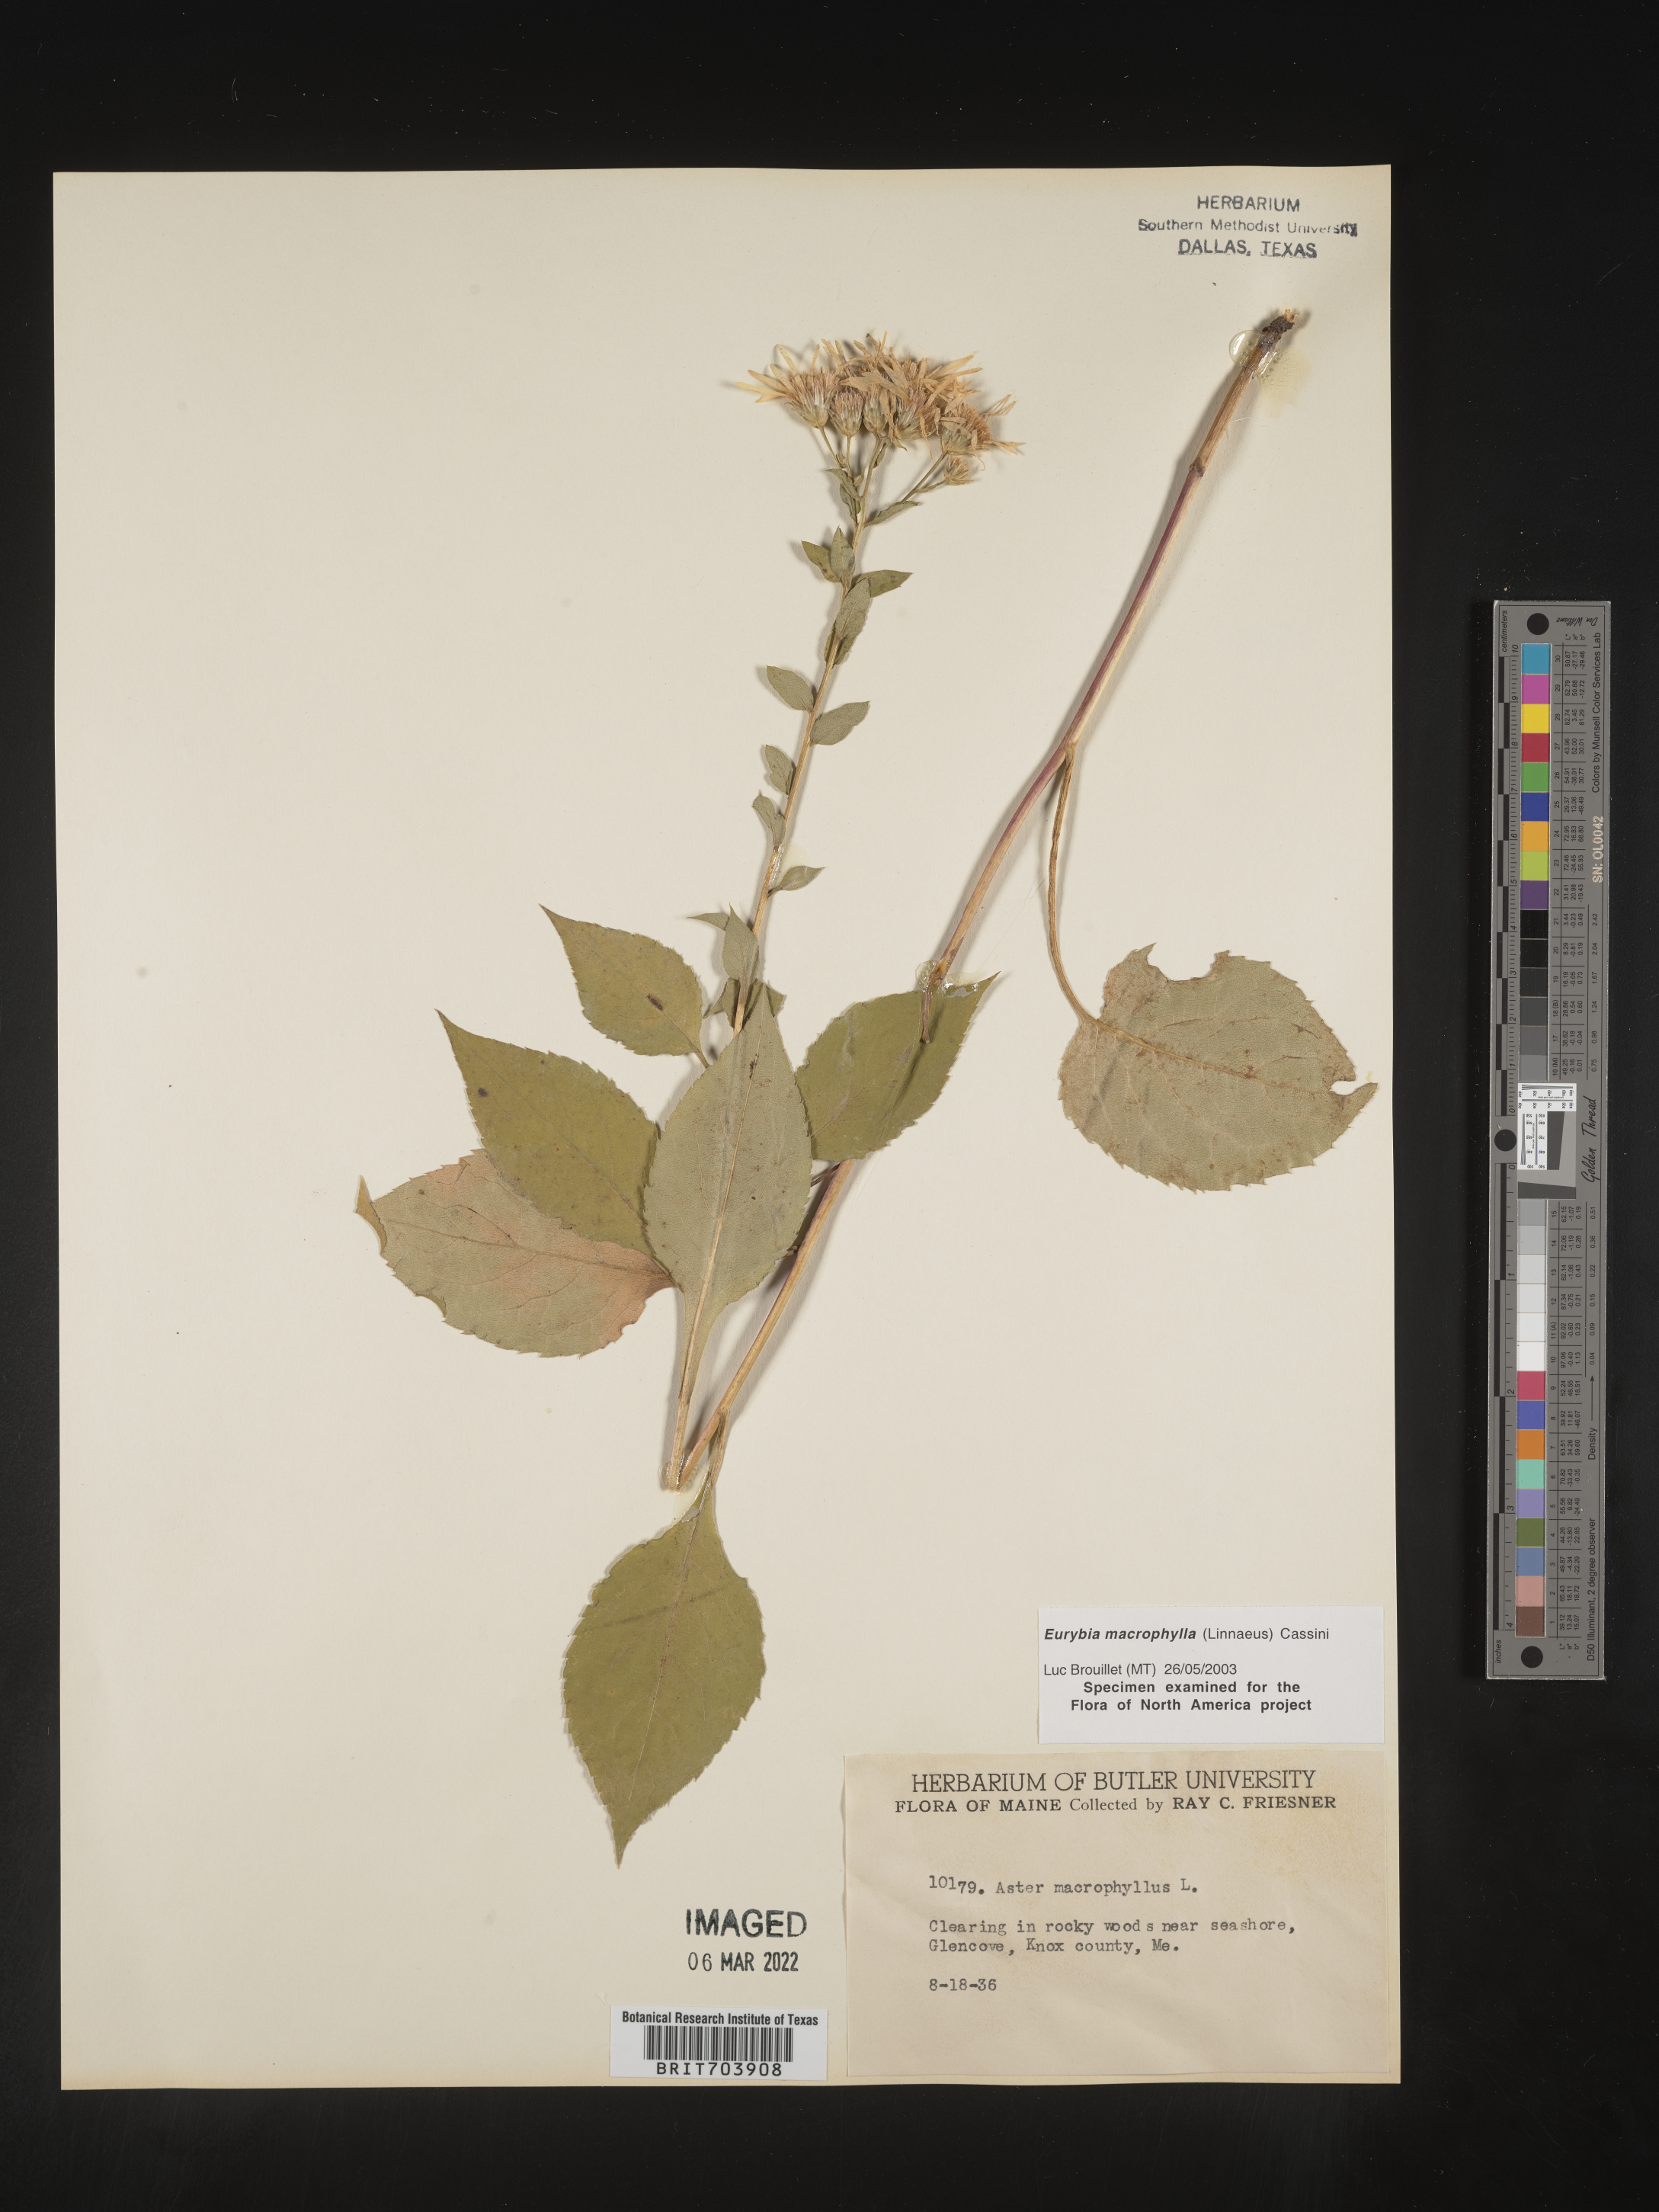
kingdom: Plantae
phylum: Tracheophyta
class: Magnoliopsida
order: Asterales
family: Asteraceae
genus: Eurybia
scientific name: Eurybia macrophylla
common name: Big-leaved aster
